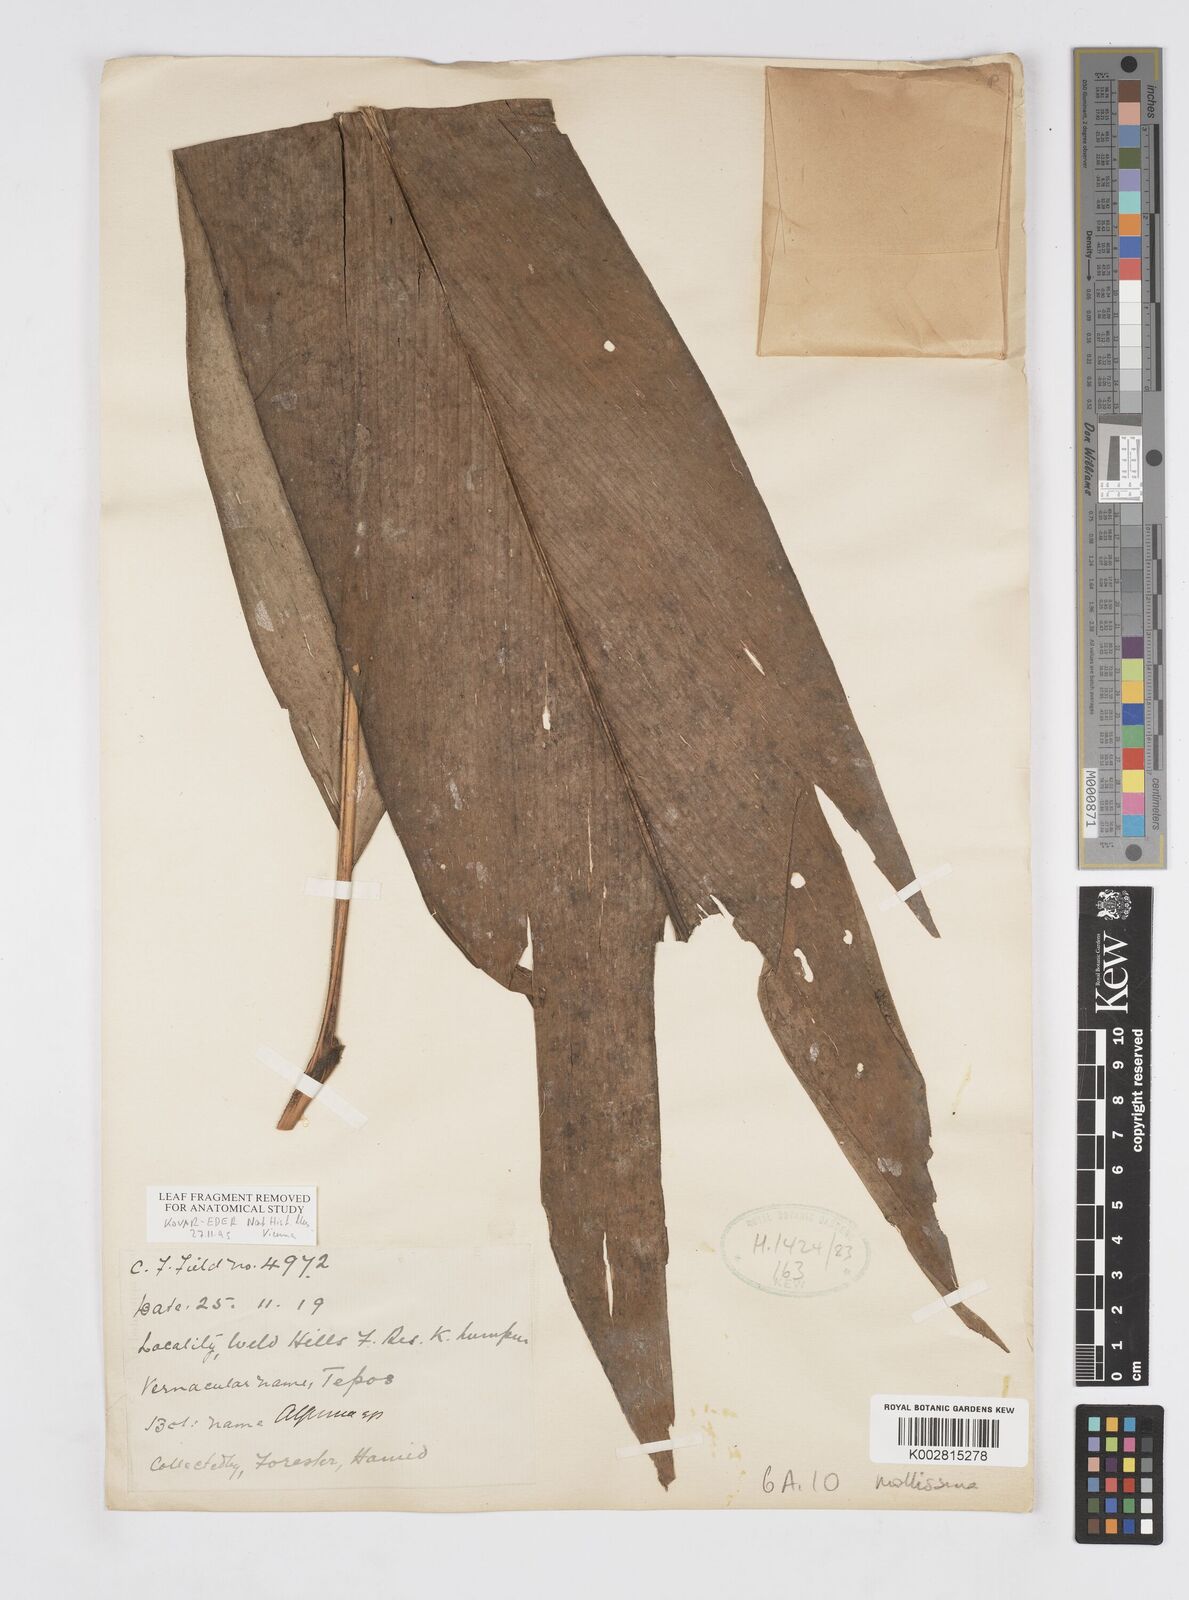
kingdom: Plantae
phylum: Tracheophyta
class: Liliopsida
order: Zingiberales
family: Zingiberaceae
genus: Alpinia
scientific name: Alpinia mollissima
